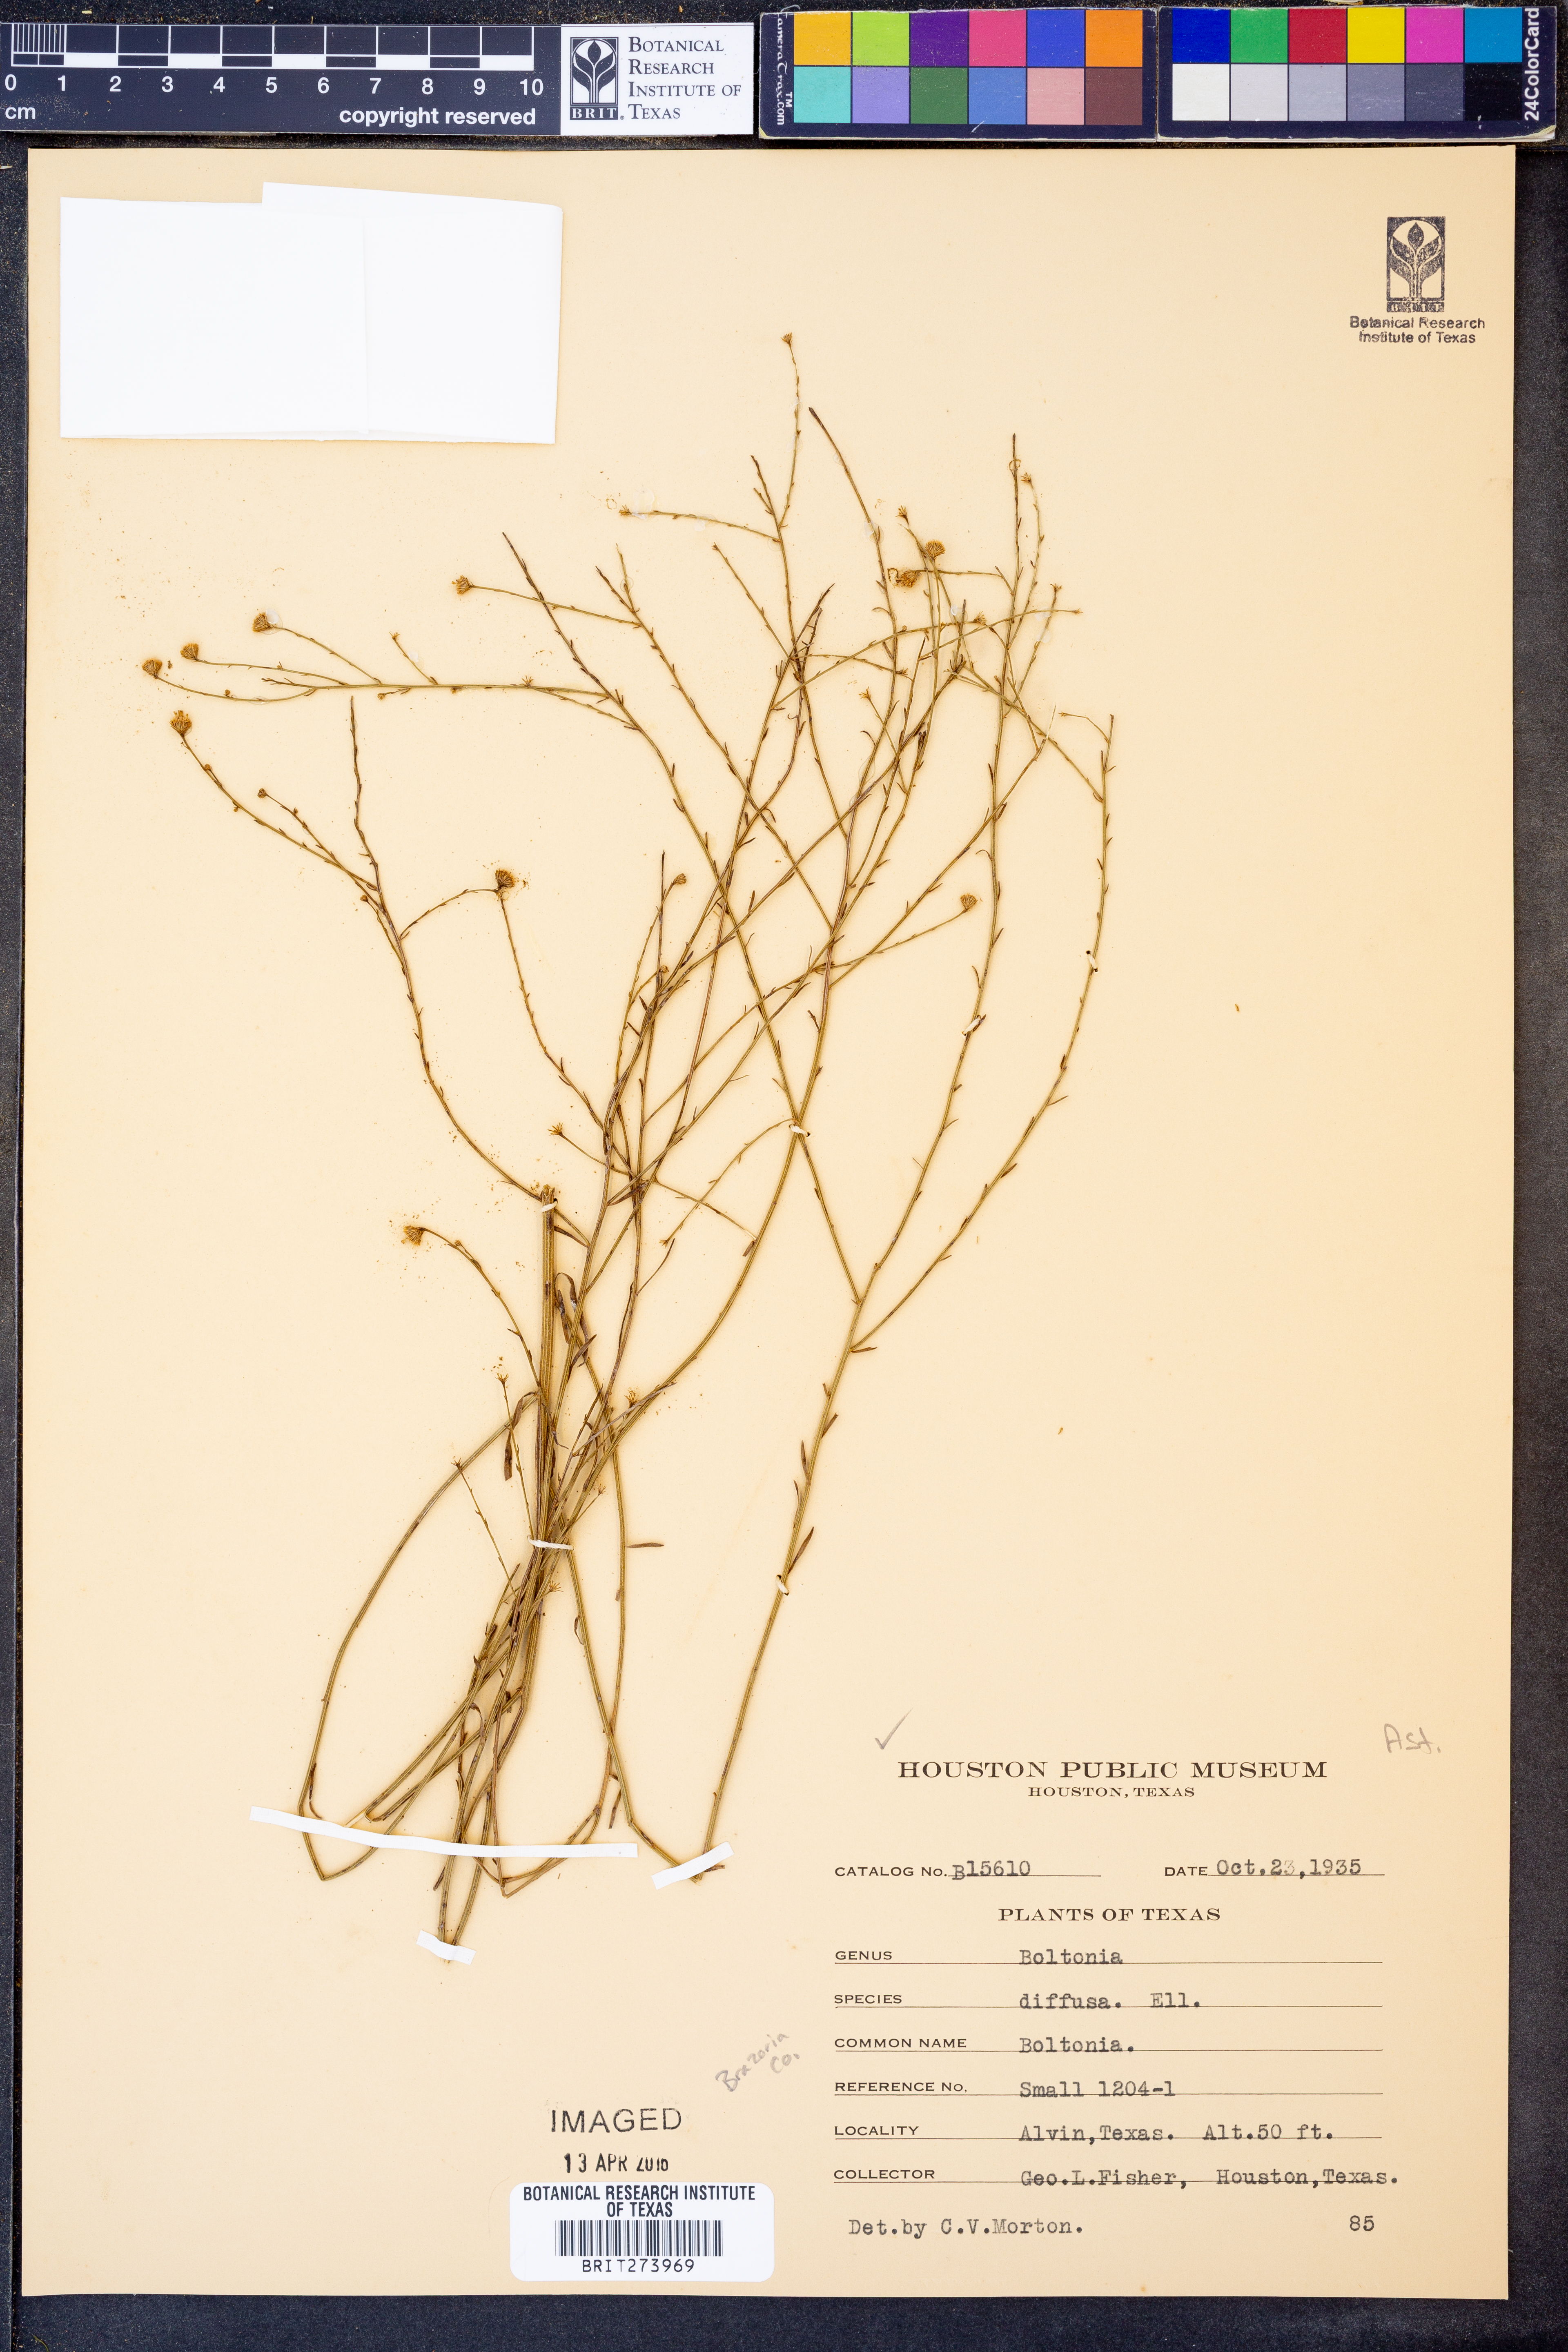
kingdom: Plantae
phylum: Tracheophyta
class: Magnoliopsida
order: Asterales
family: Asteraceae
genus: Boltonia
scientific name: Boltonia diffusa
